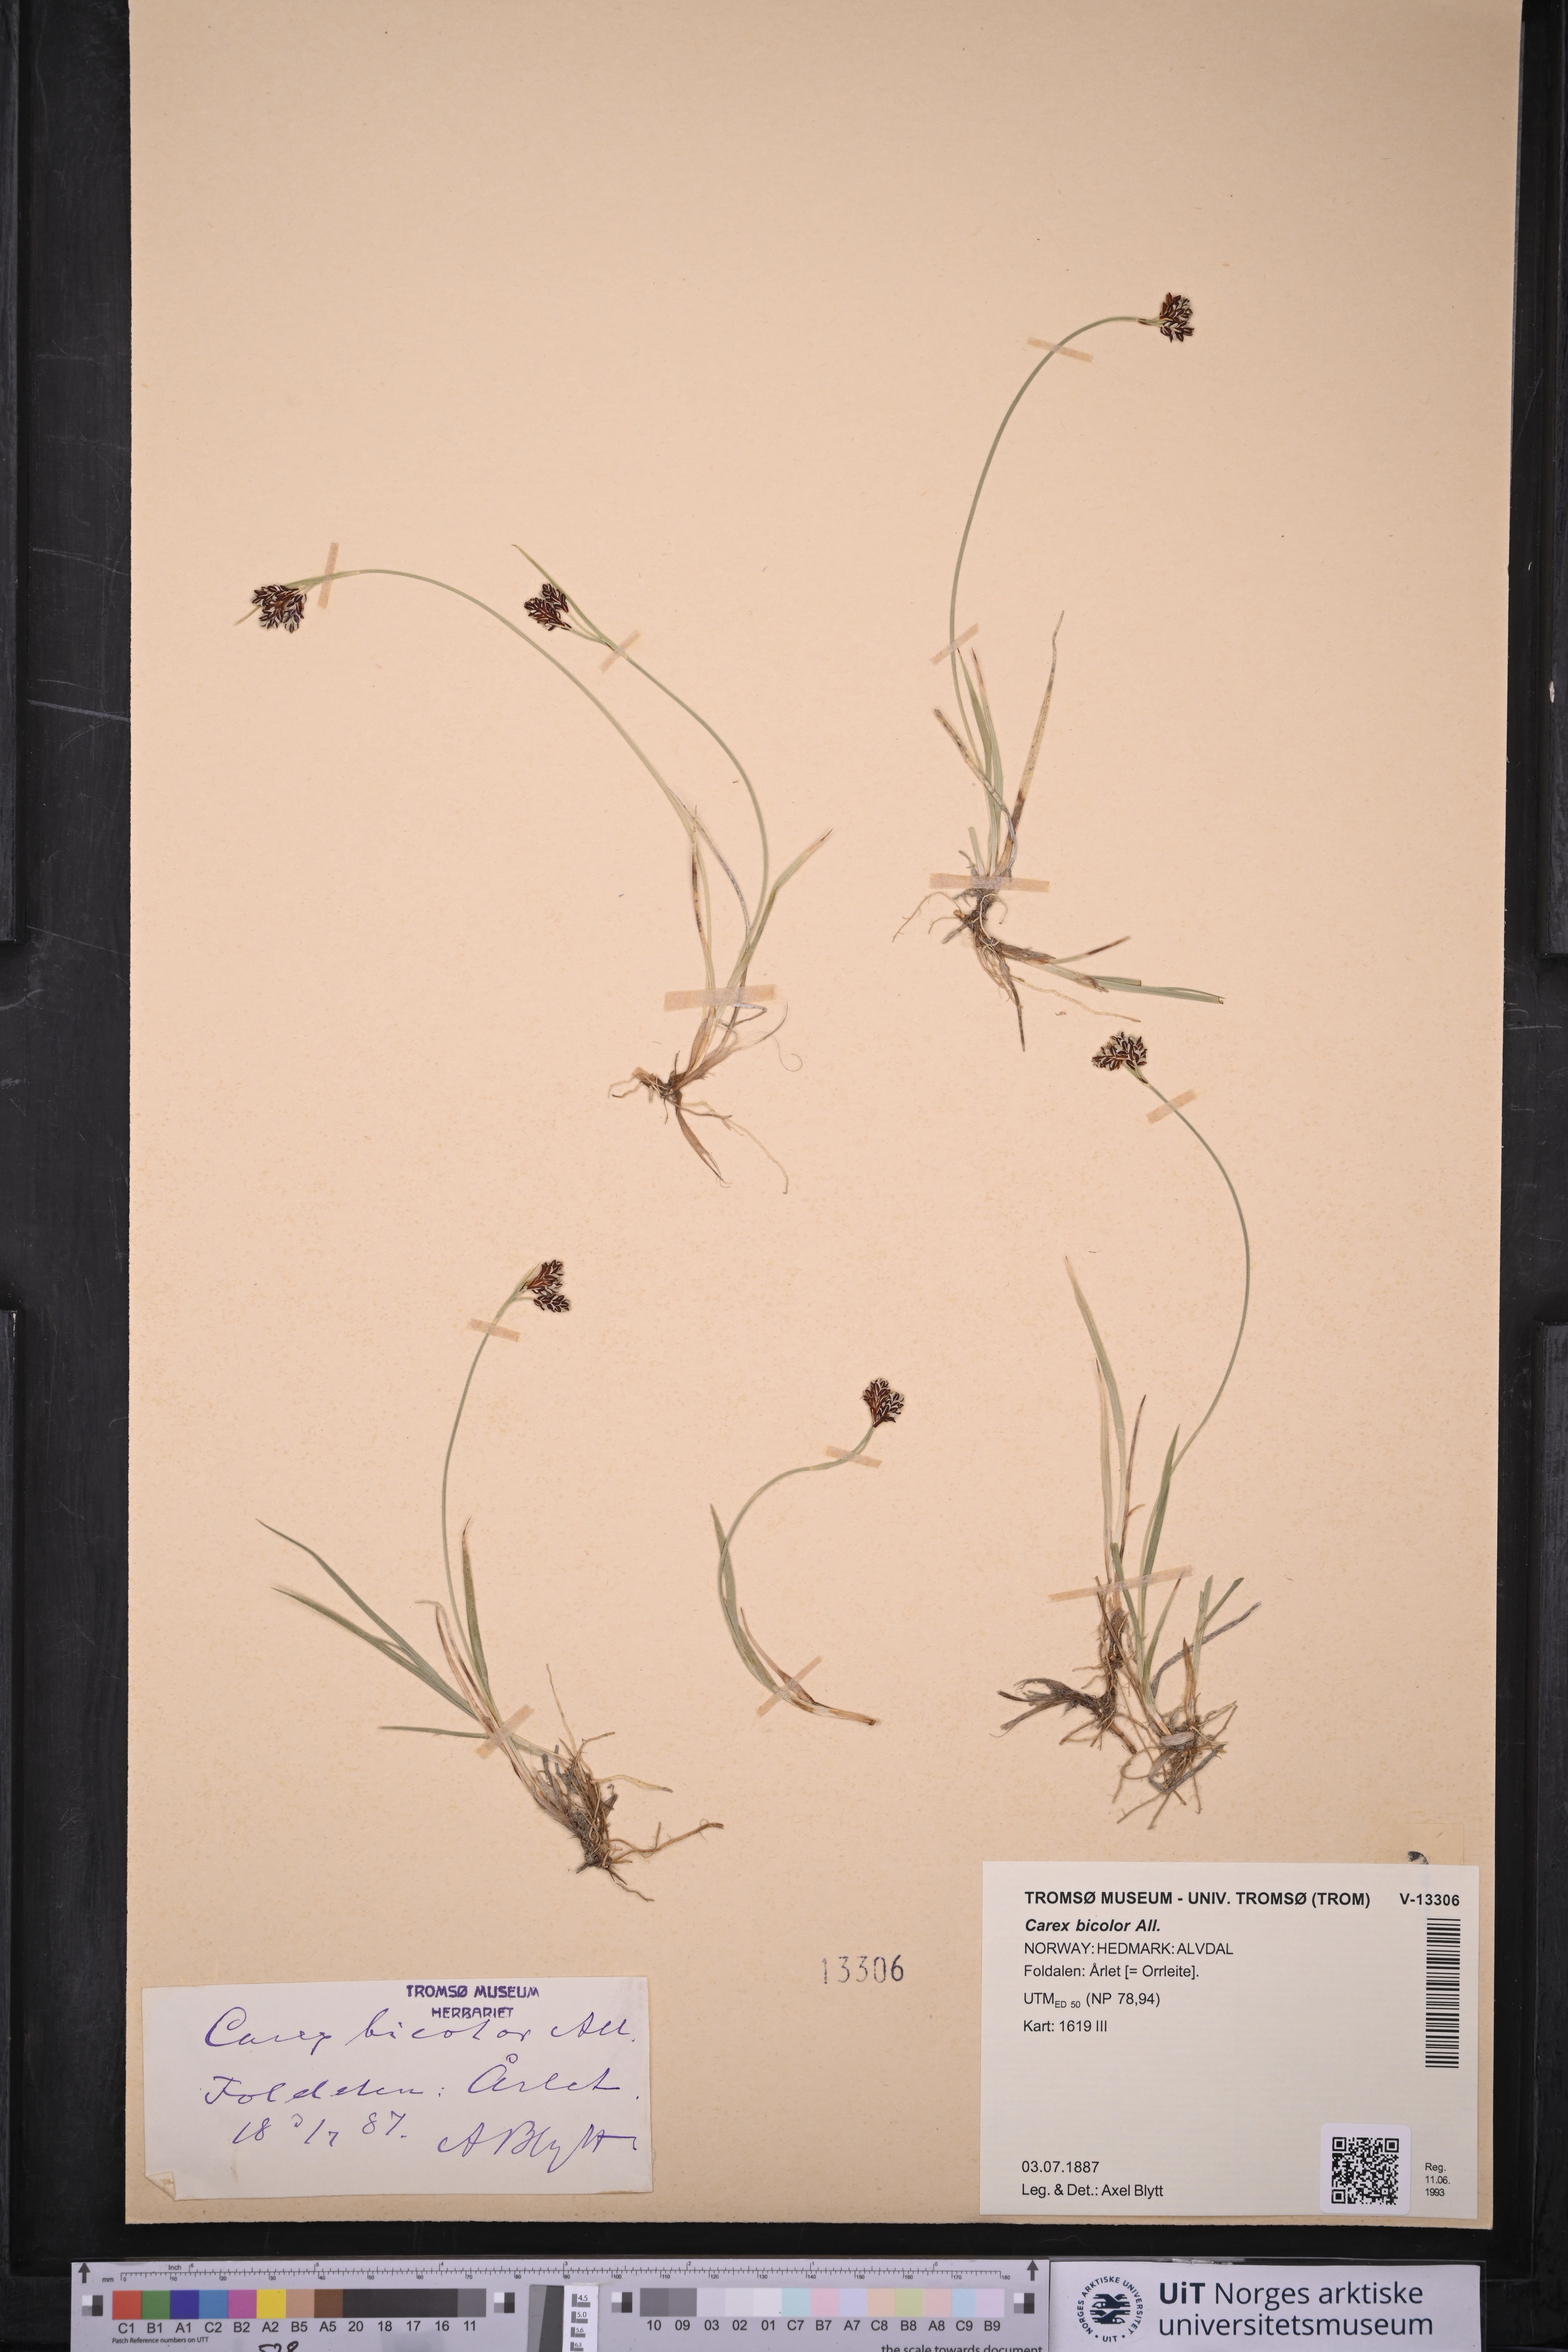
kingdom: Plantae
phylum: Tracheophyta
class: Liliopsida
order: Poales
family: Cyperaceae
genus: Carex
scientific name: Carex bicolor
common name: Bicoloured sedge
